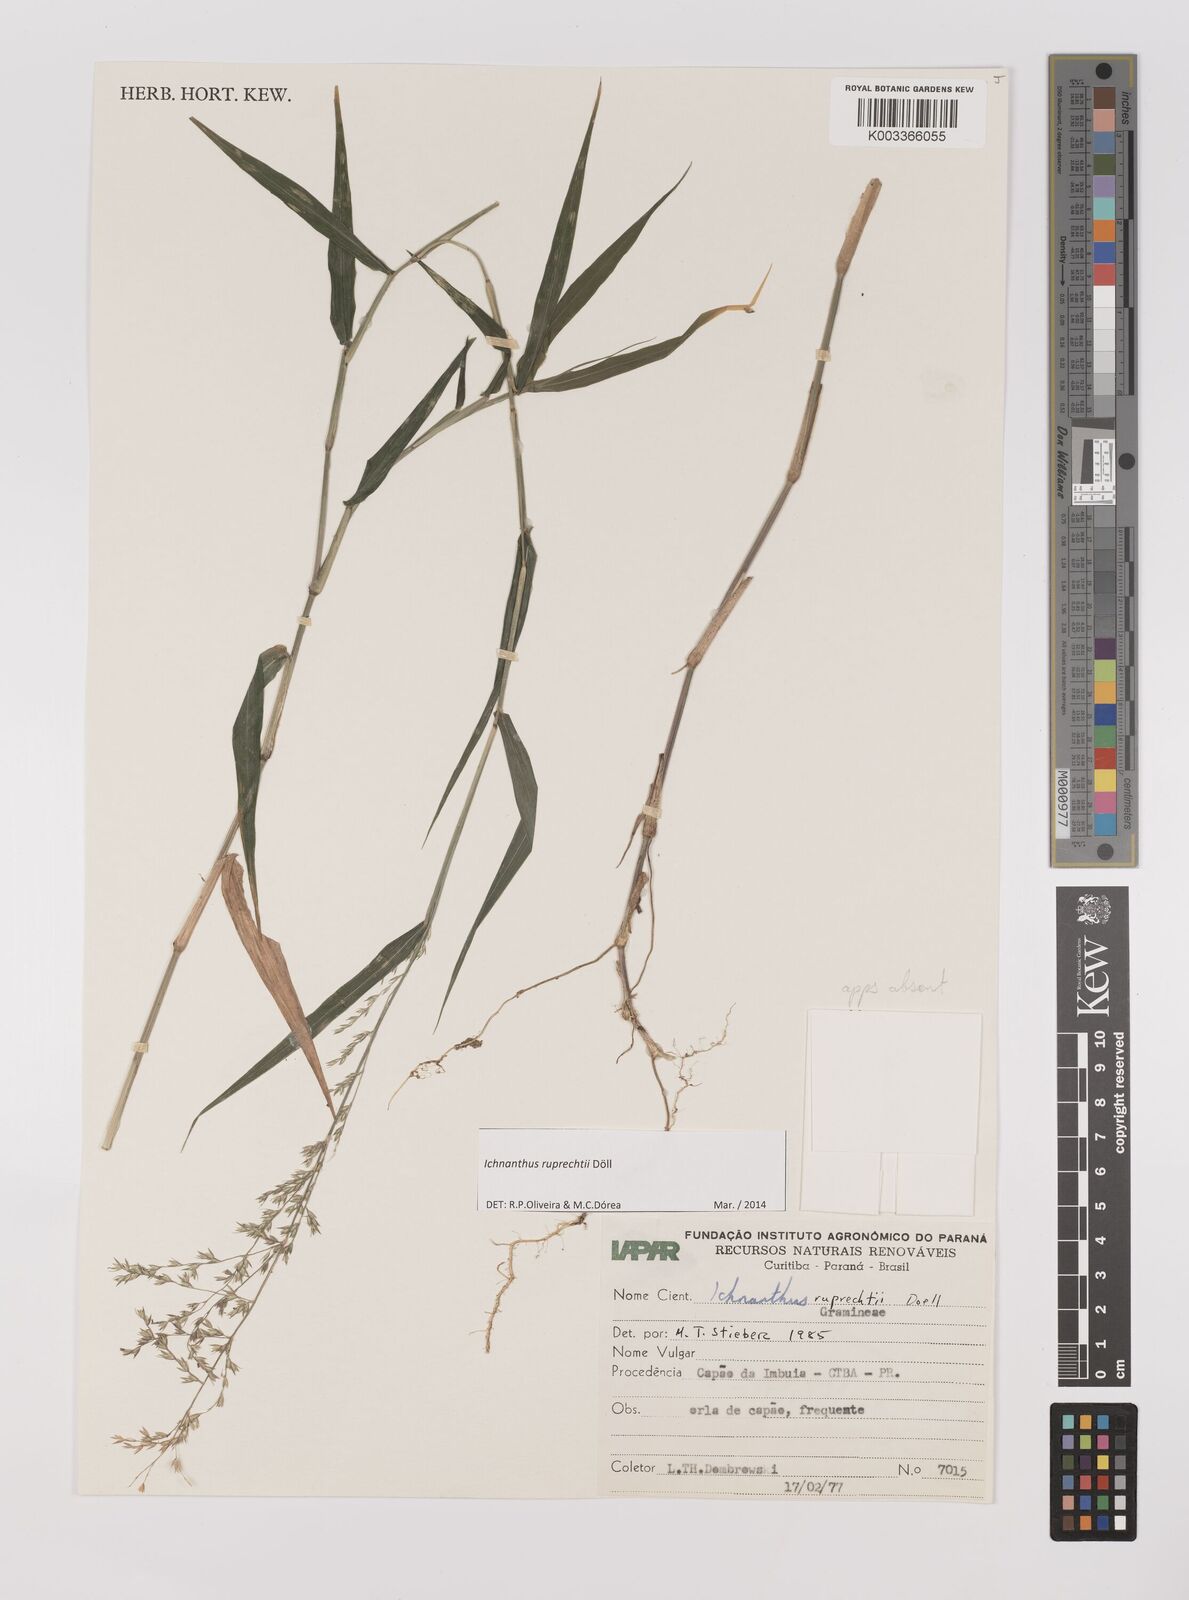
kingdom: Plantae
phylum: Tracheophyta
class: Liliopsida
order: Poales
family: Poaceae
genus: Ichnanthus
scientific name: Ichnanthus ruprechtii
